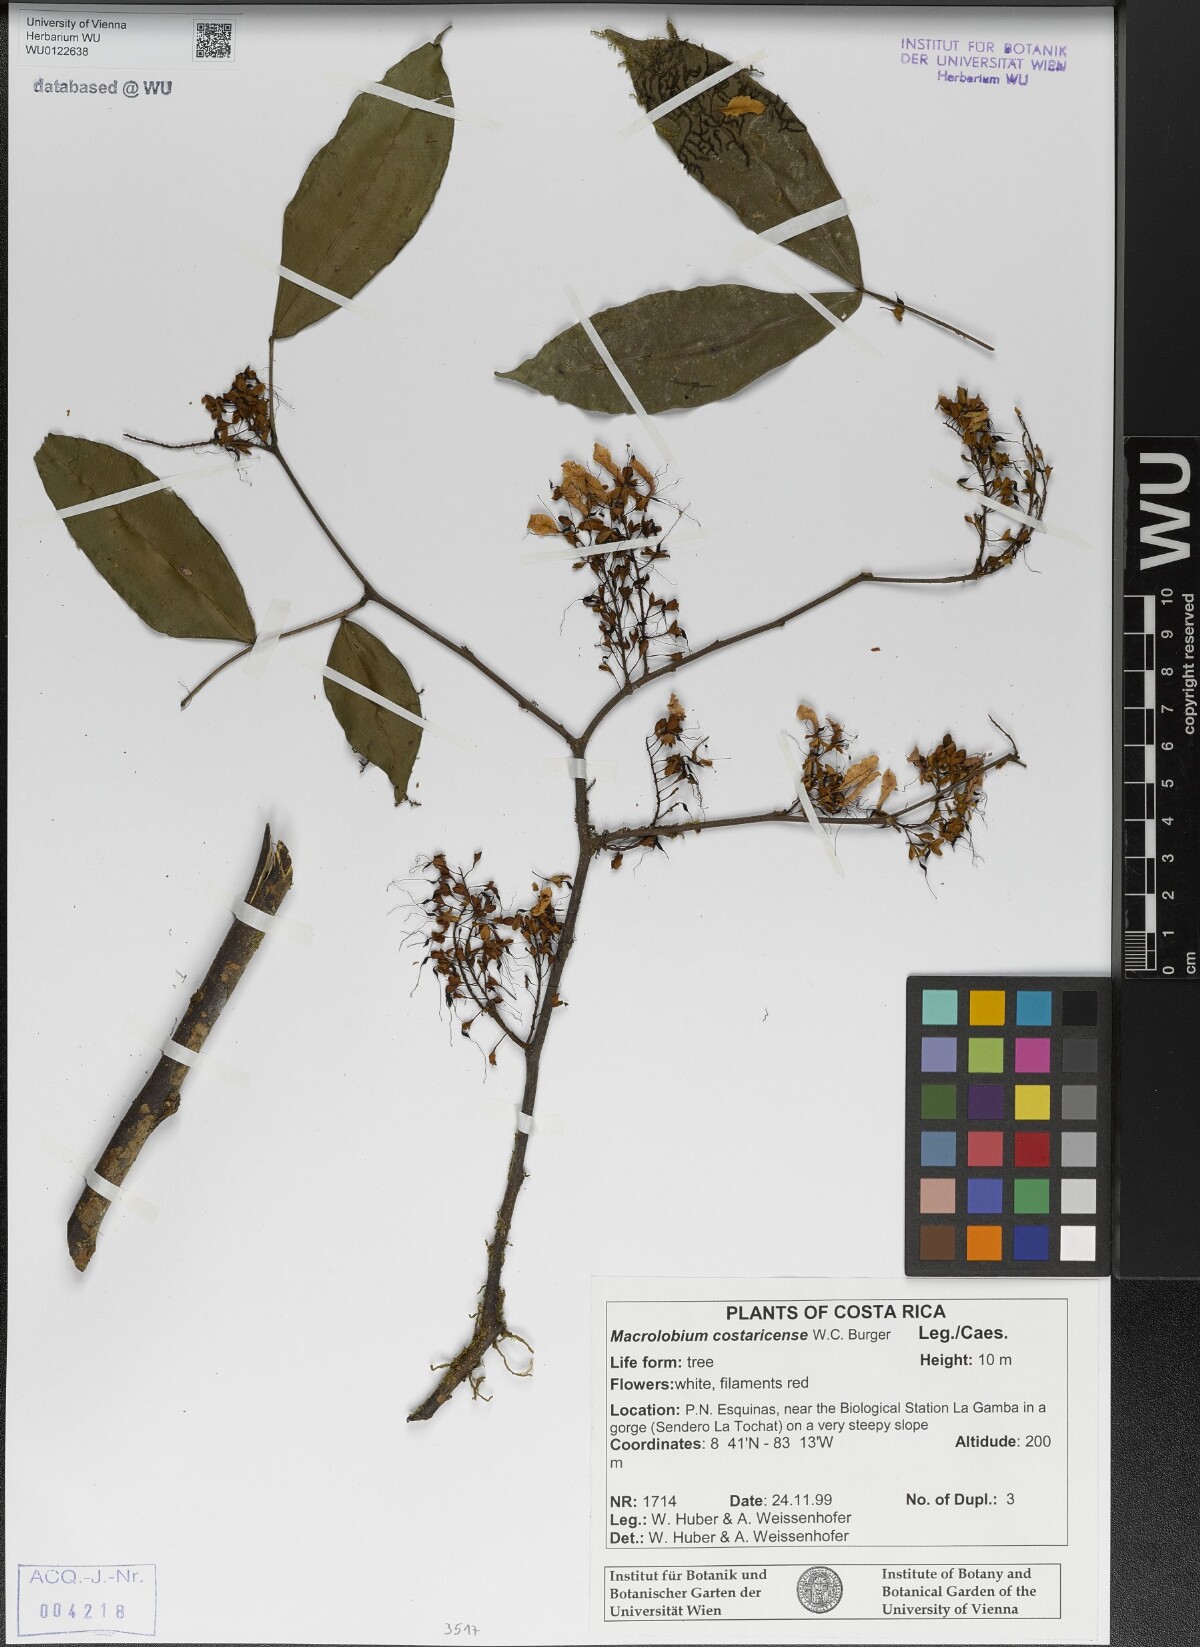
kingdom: Plantae
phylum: Tracheophyta
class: Magnoliopsida
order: Fabales
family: Fabaceae
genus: Macrolobium
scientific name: Macrolobium costaricense
